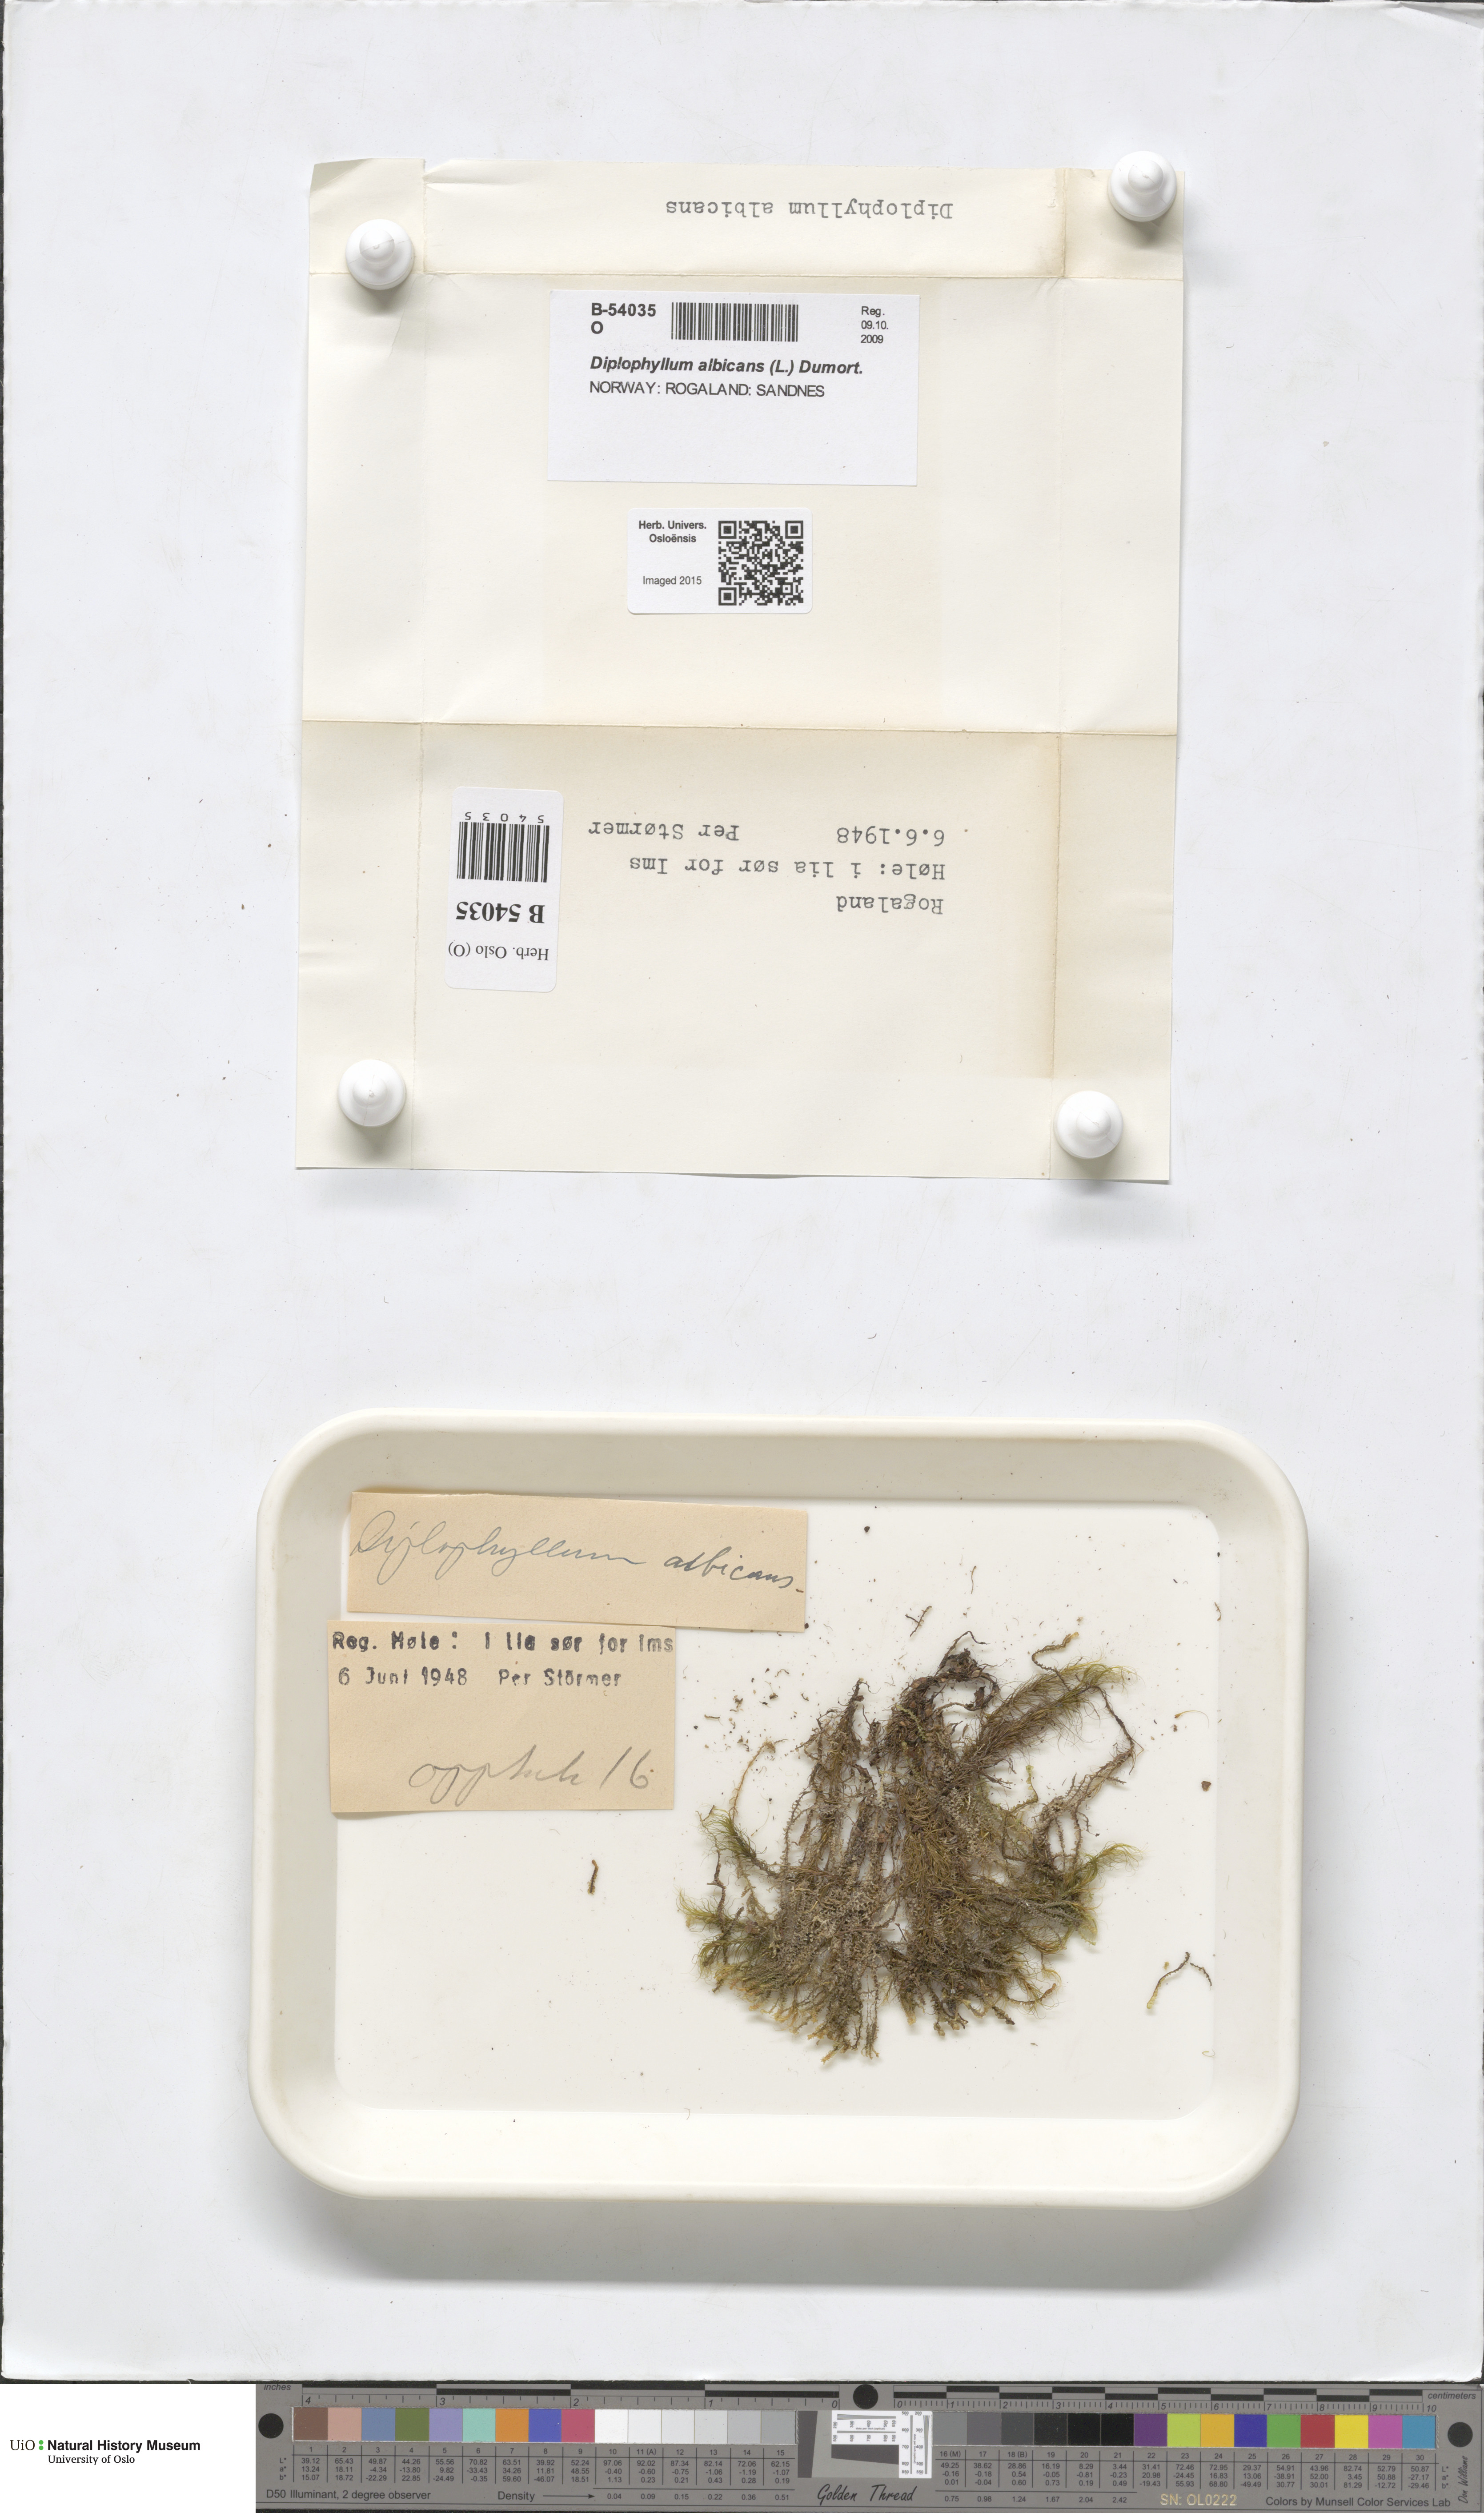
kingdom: Plantae
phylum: Marchantiophyta
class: Jungermanniopsida
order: Jungermanniales
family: Scapaniaceae
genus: Diplophyllum
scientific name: Diplophyllum albicans
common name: White earwort
